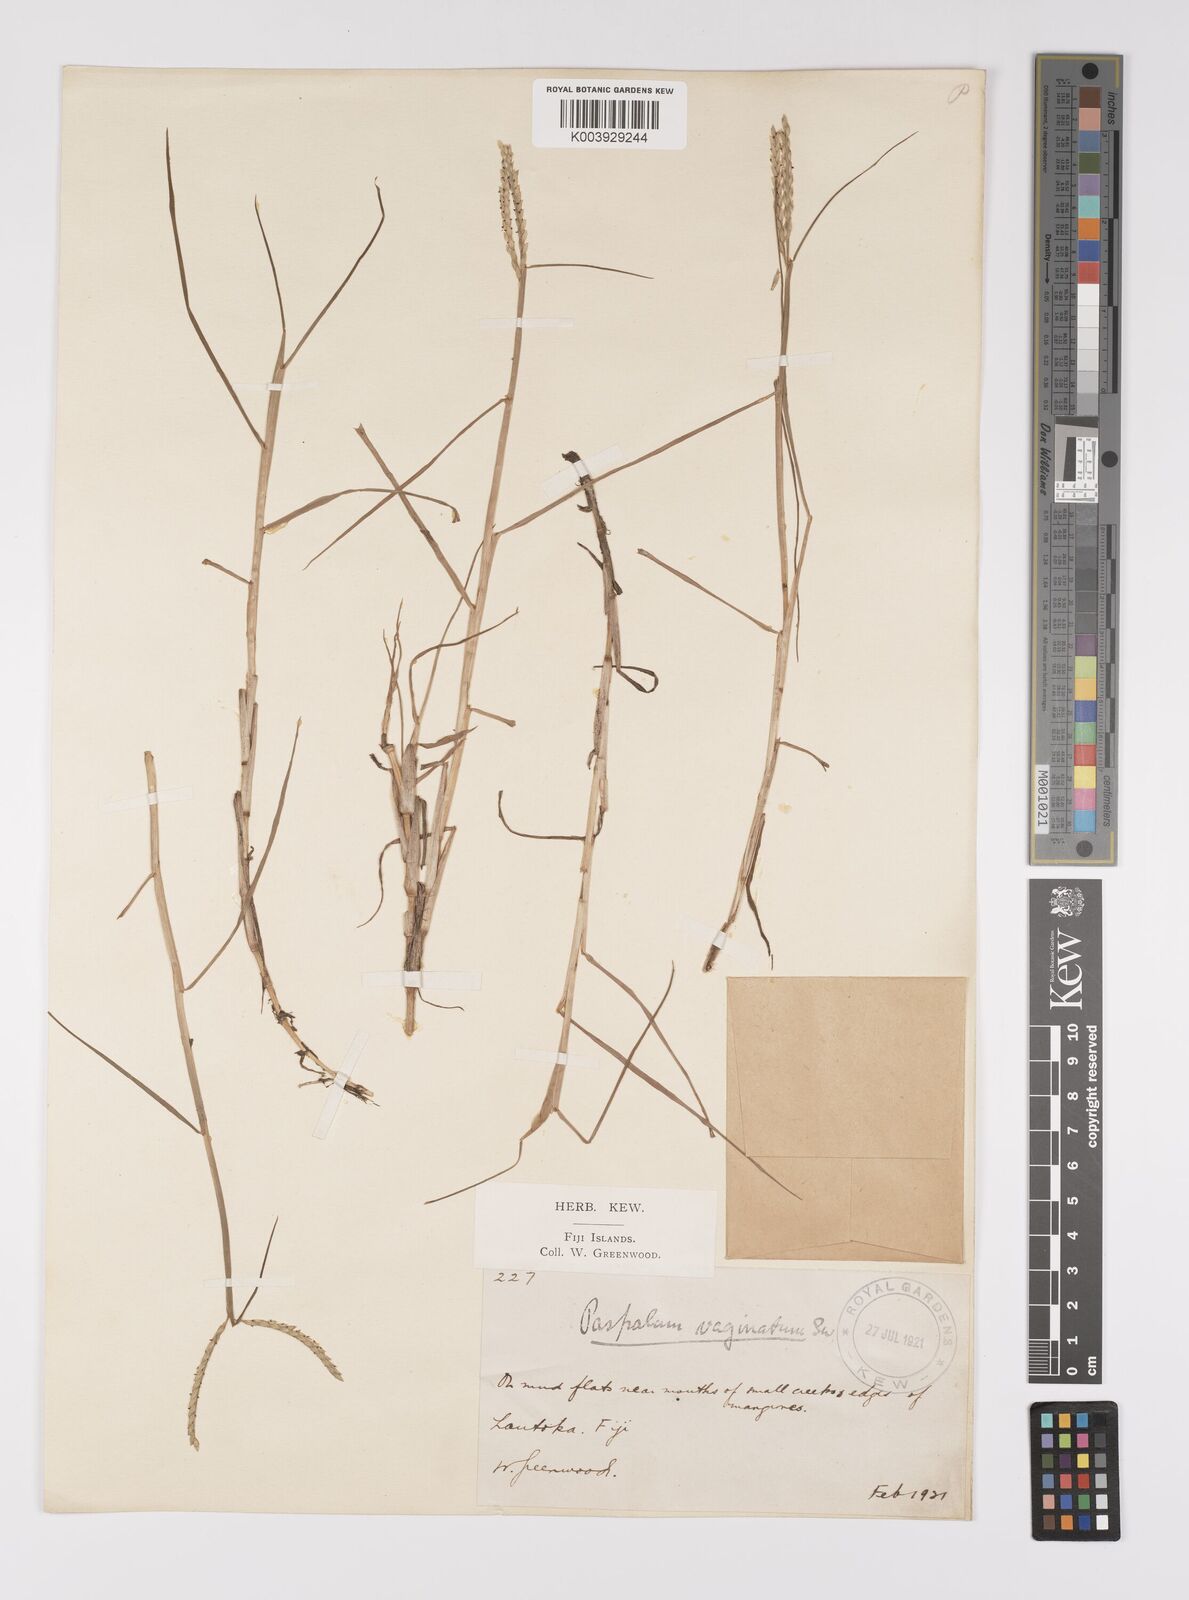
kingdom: Plantae
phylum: Tracheophyta
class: Liliopsida
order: Poales
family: Poaceae
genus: Paspalum
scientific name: Paspalum vaginatum
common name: Seashore paspalum
